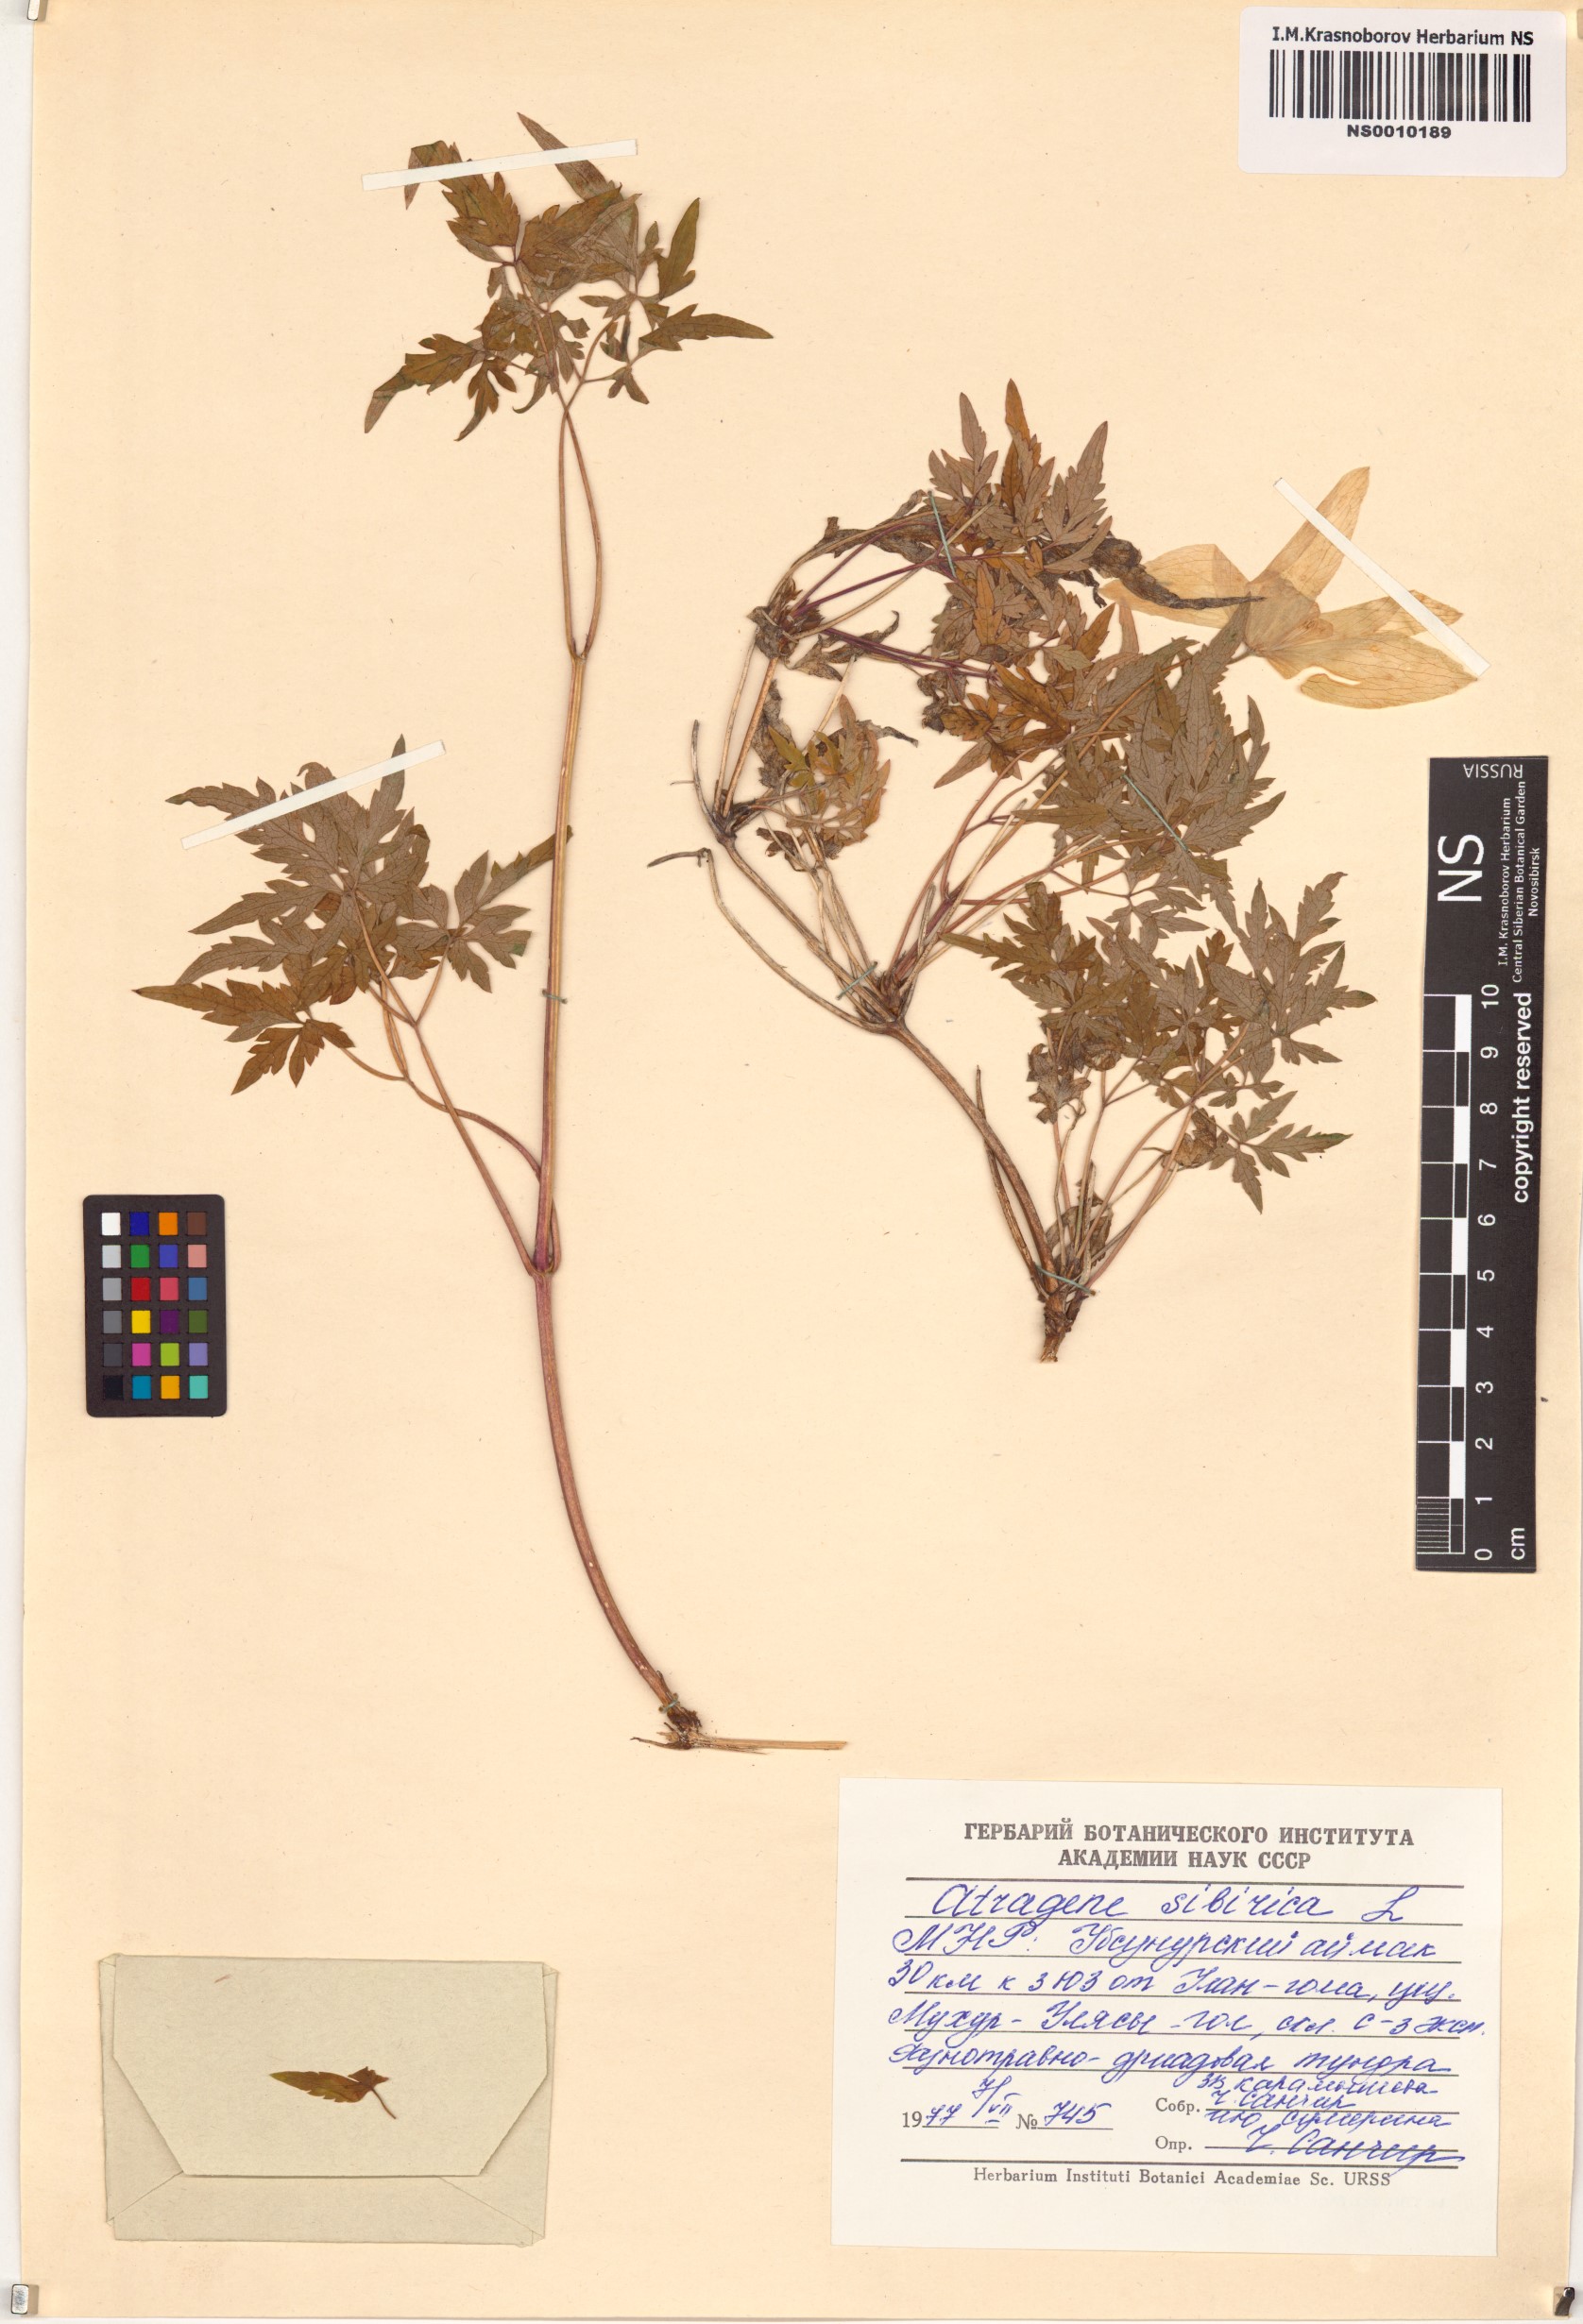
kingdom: Plantae
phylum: Tracheophyta
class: Magnoliopsida
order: Ranunculales
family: Ranunculaceae
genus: Clematis
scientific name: Clematis sibirica
